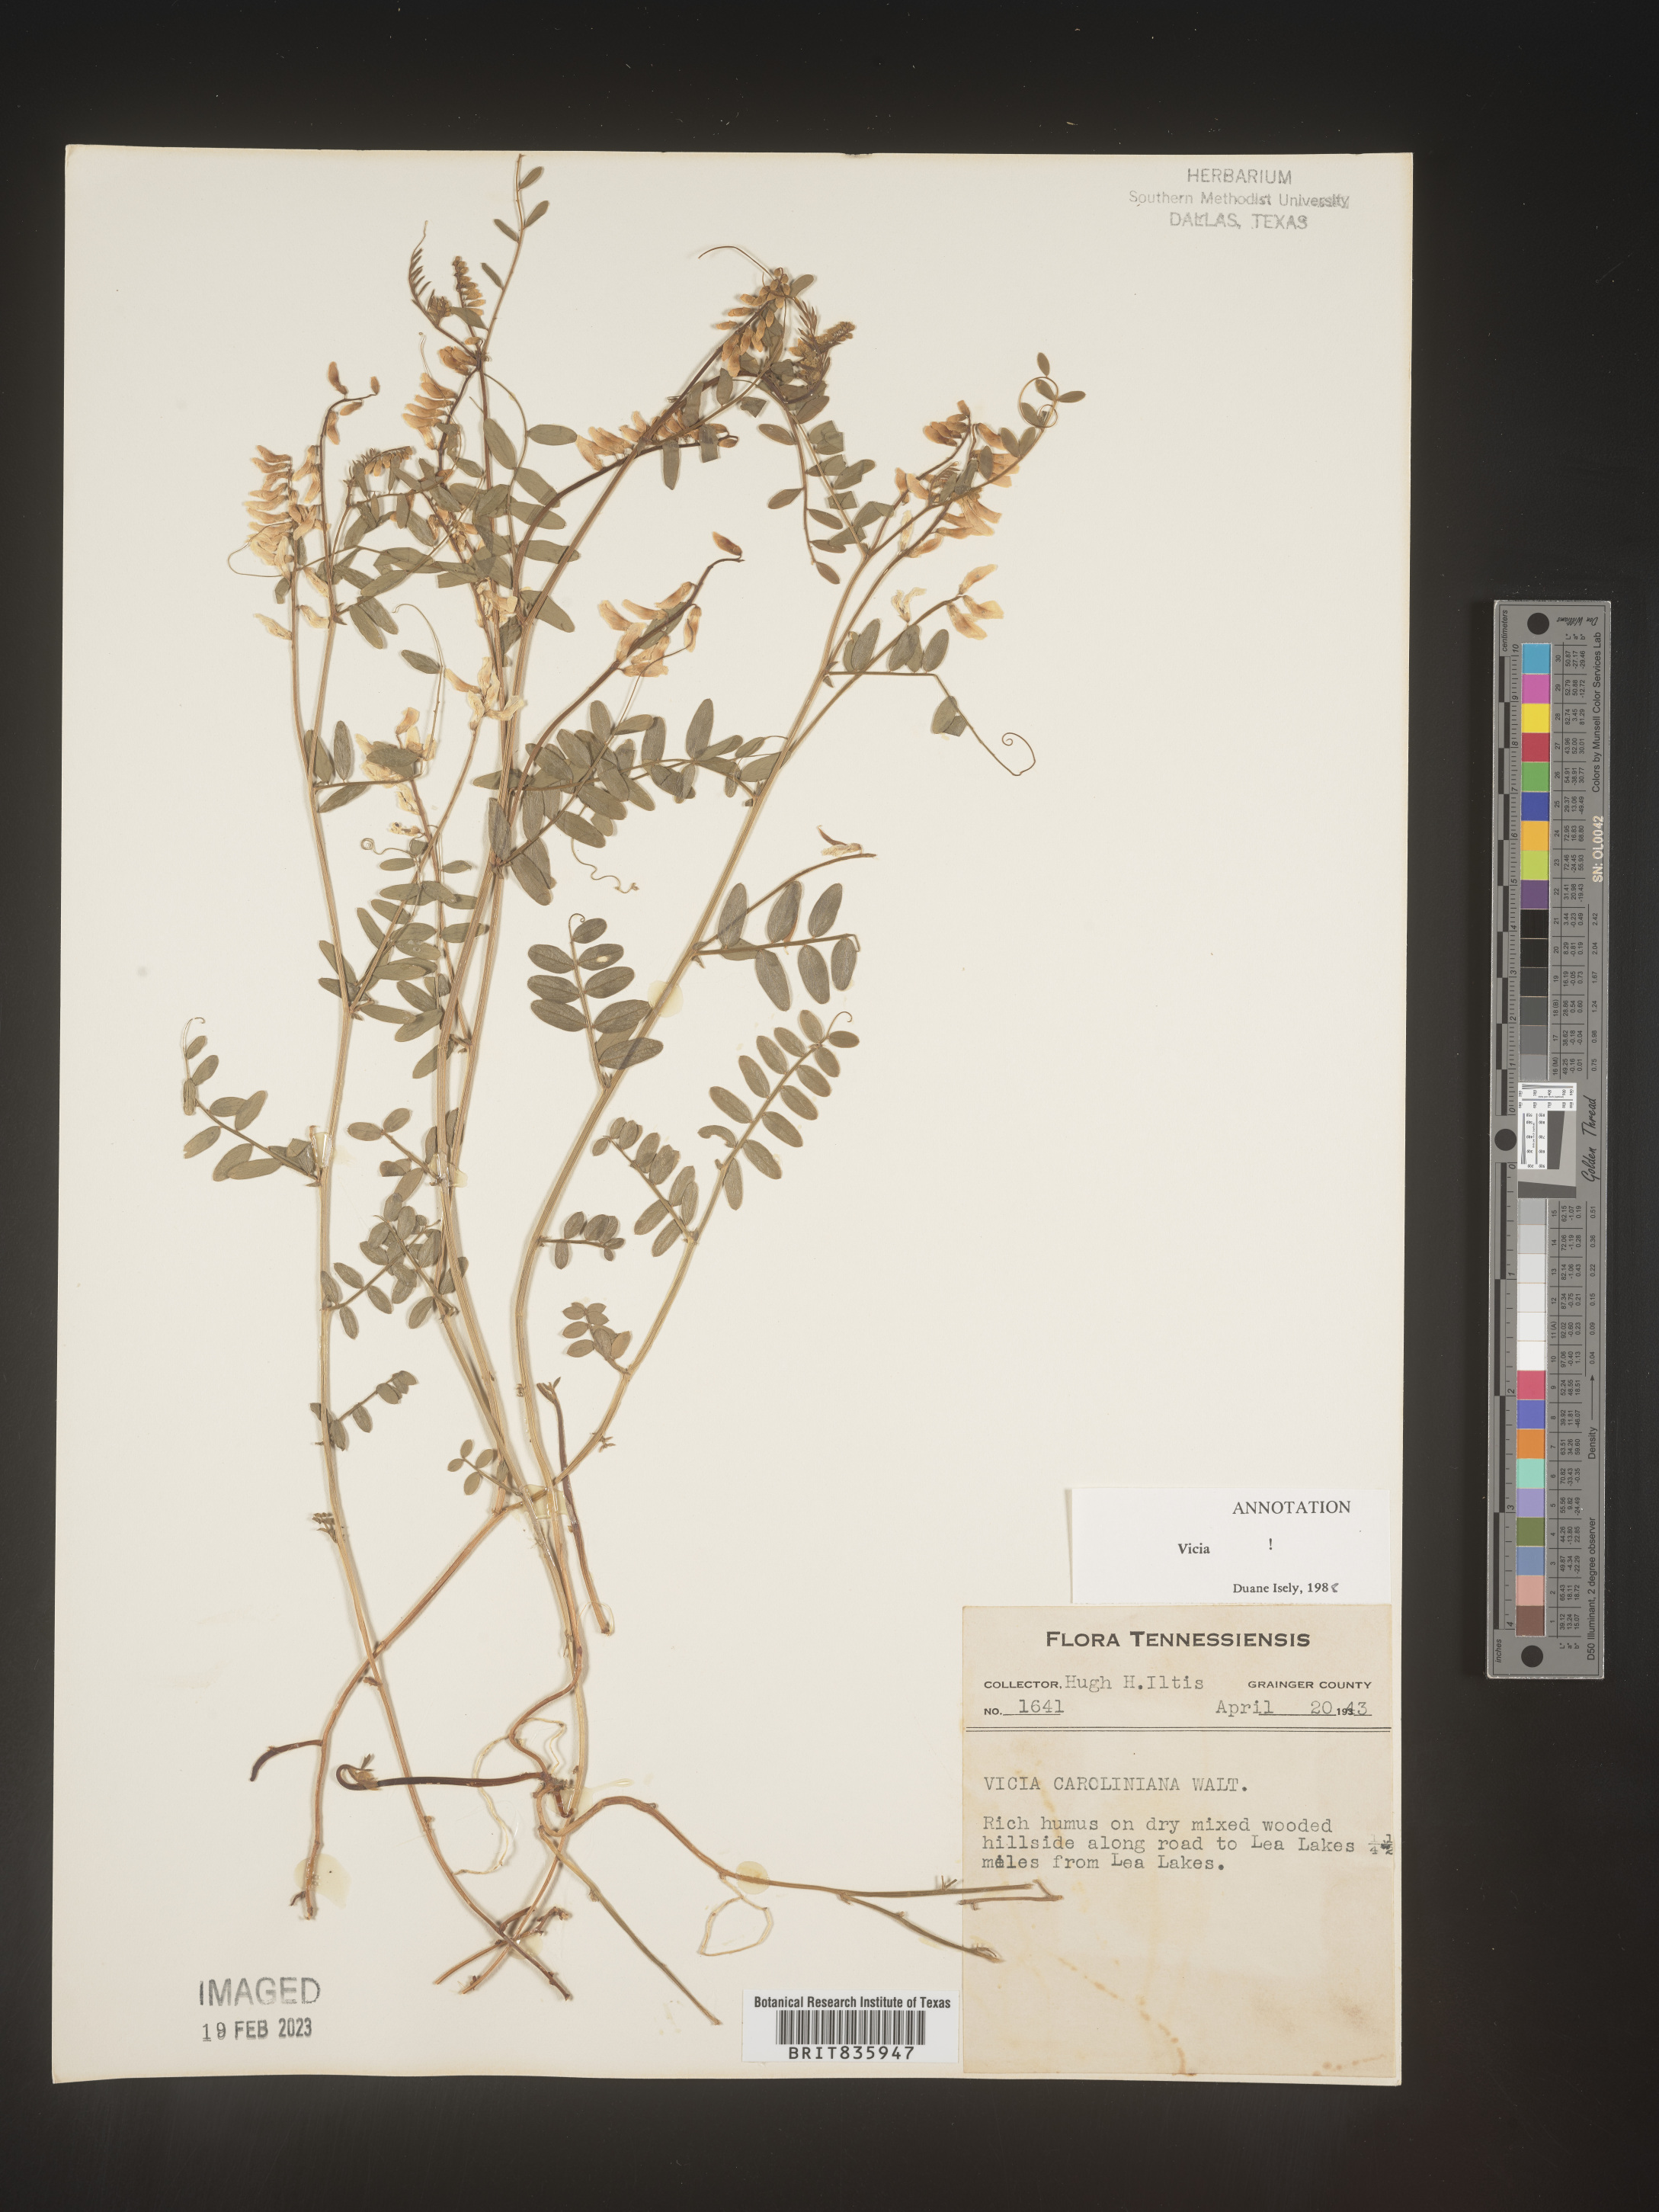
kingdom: Plantae
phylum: Tracheophyta
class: Magnoliopsida
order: Fabales
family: Fabaceae
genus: Vicia
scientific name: Vicia caroliniana
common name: Carolina vetch
